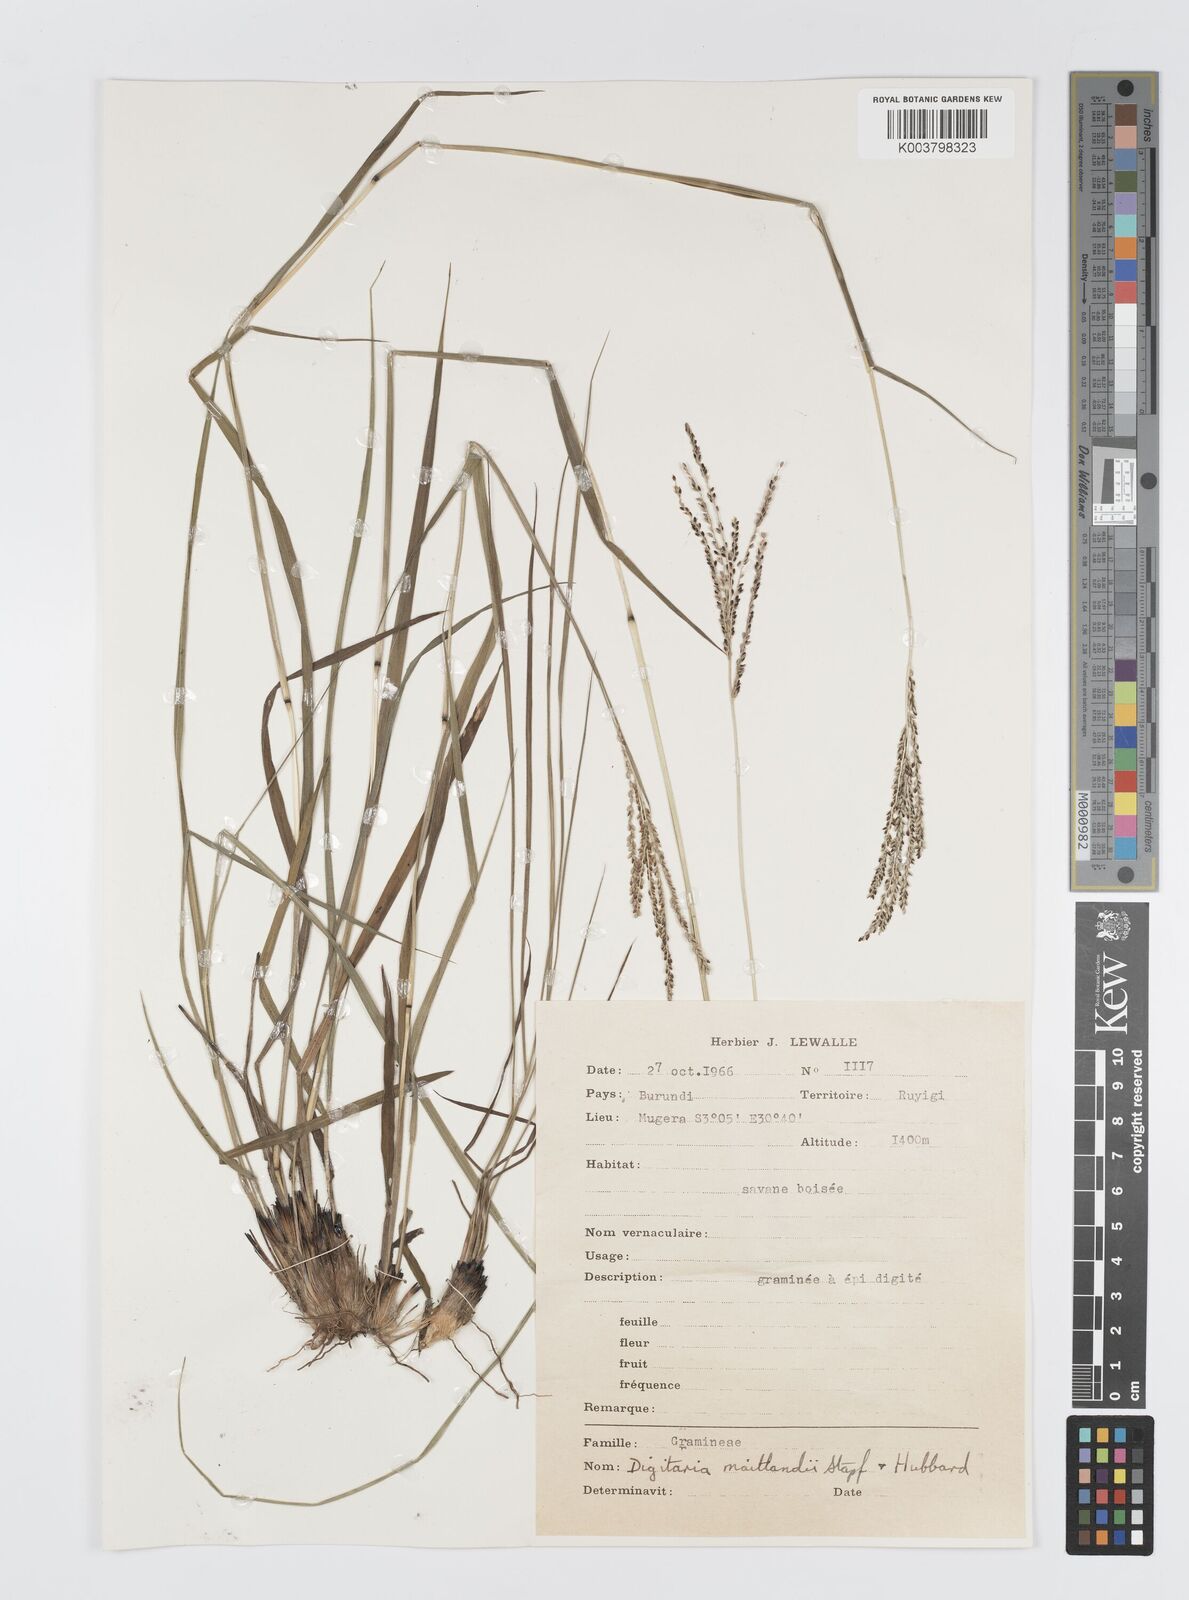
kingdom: Plantae
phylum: Tracheophyta
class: Liliopsida
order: Poales
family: Poaceae
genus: Digitaria
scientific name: Digitaria maitlandii
